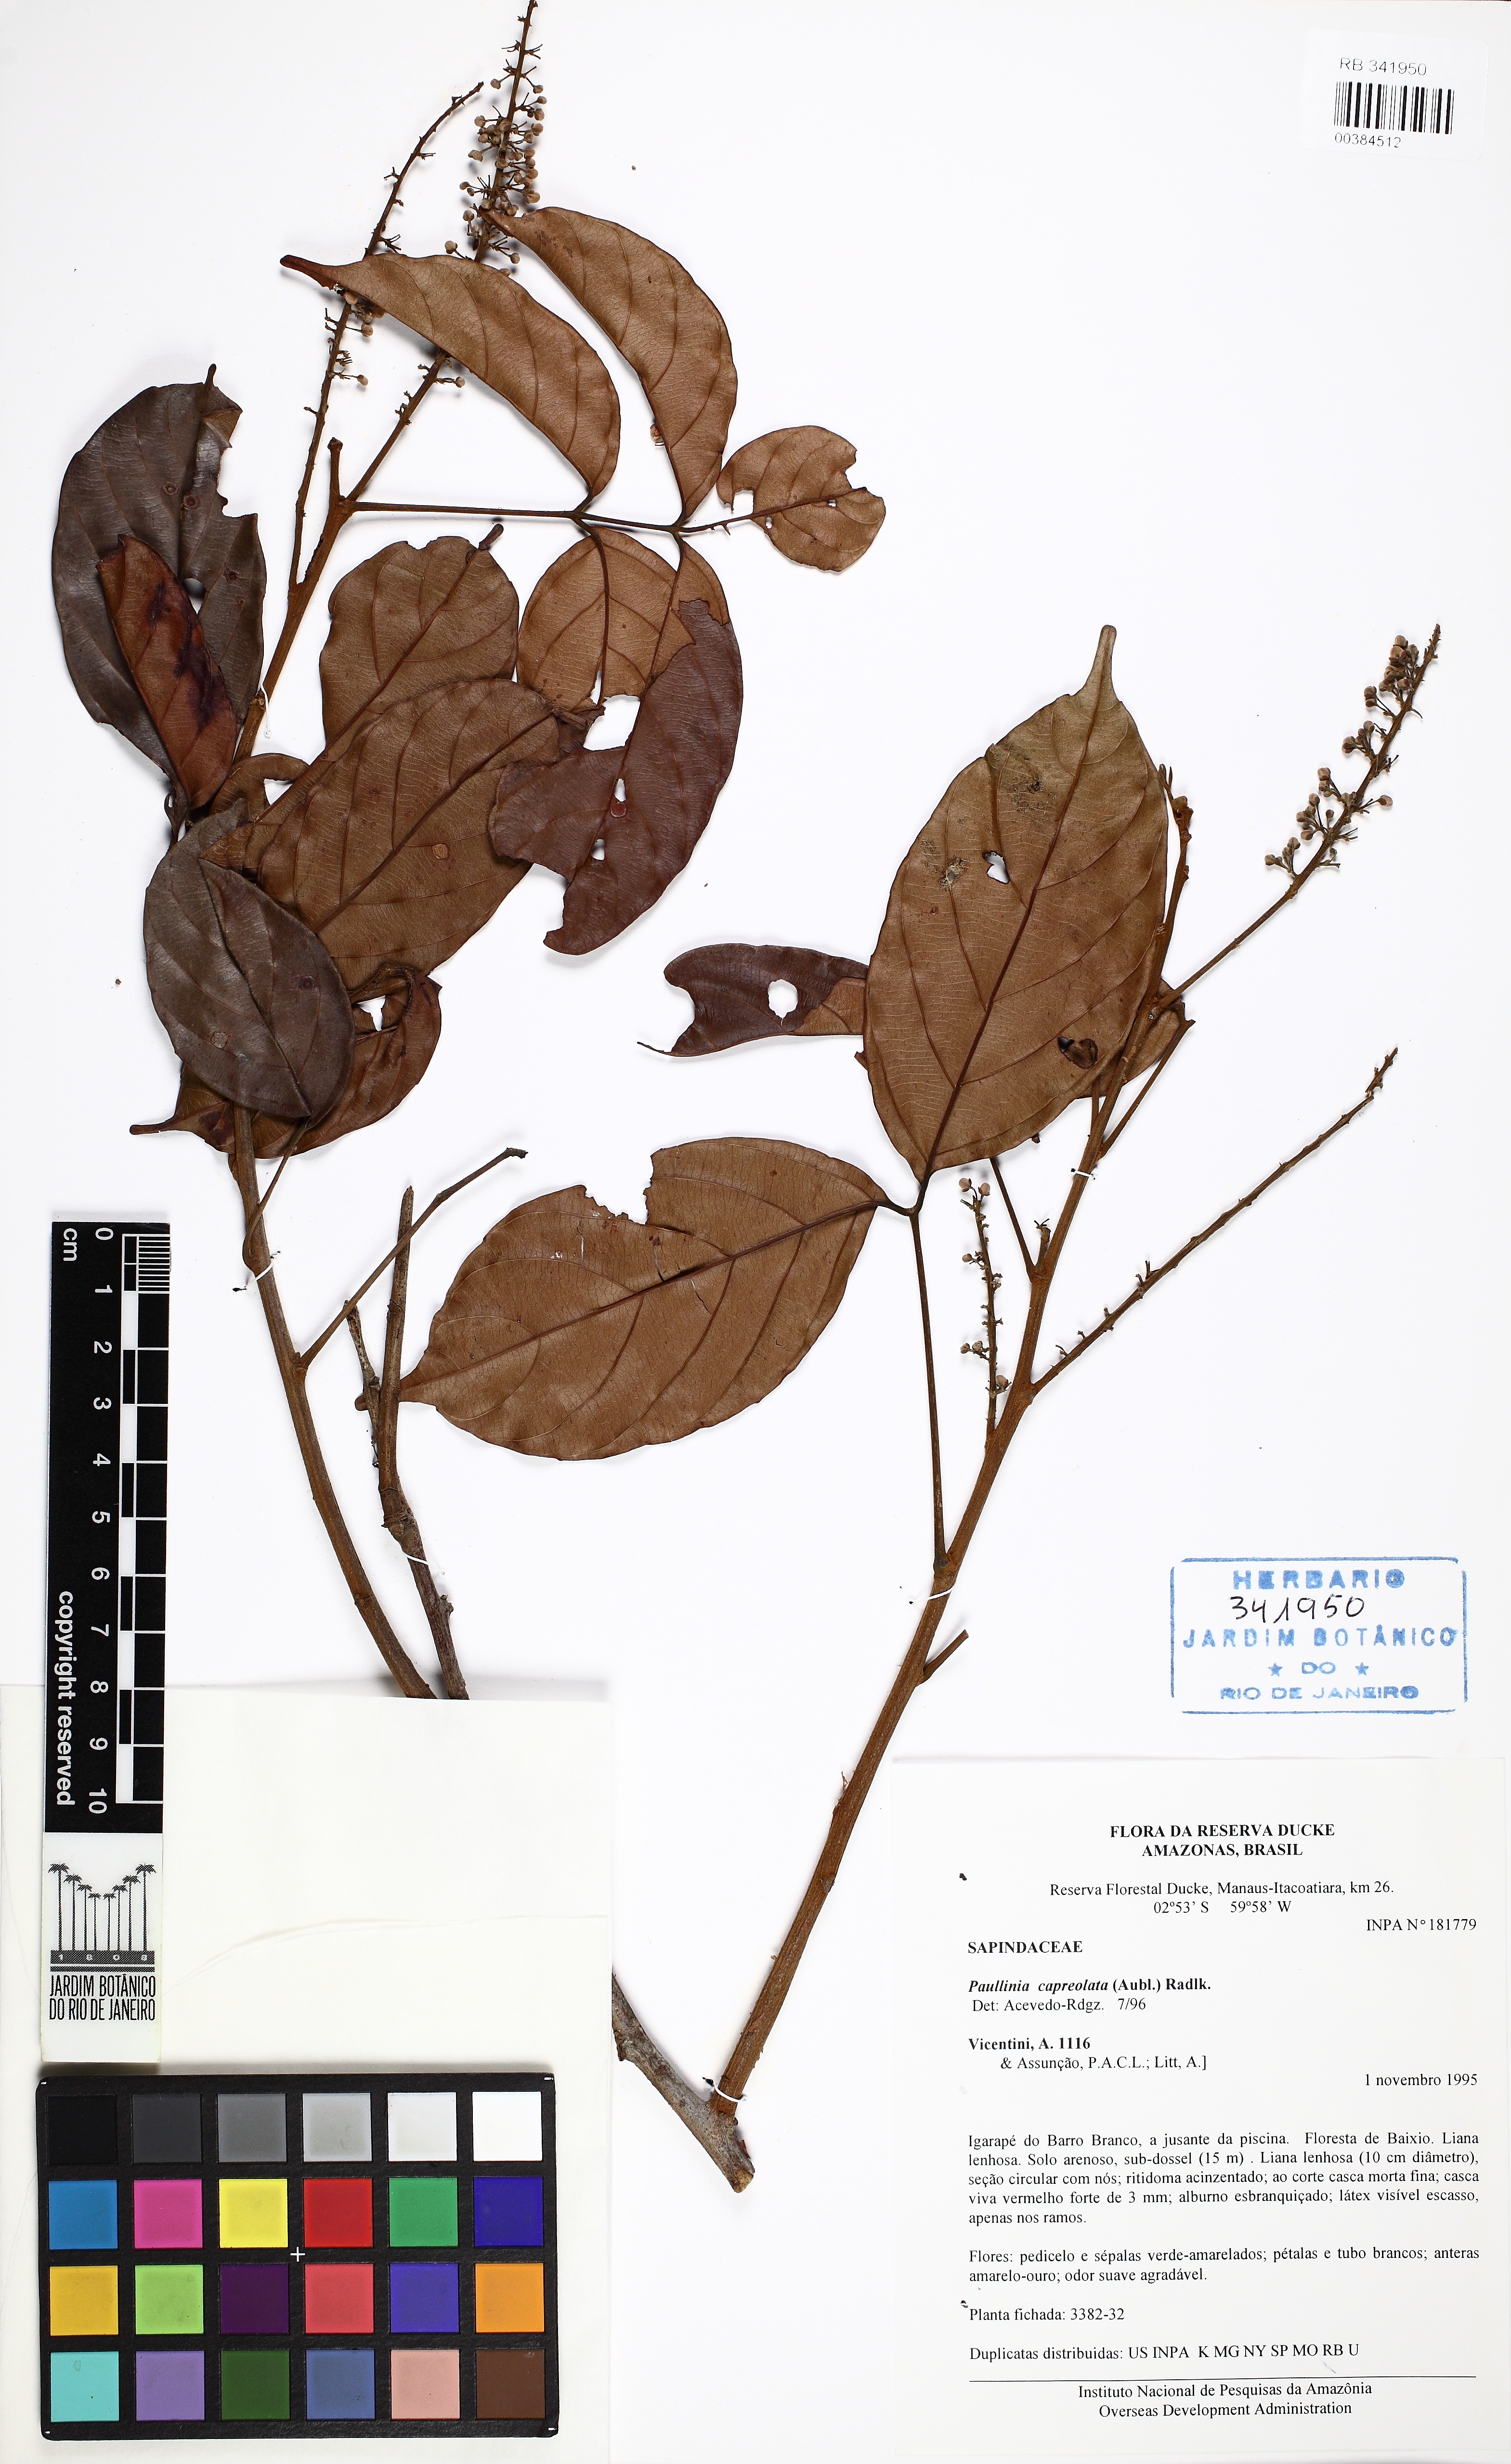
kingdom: Plantae
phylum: Tracheophyta
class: Magnoliopsida
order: Sapindales
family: Sapindaceae
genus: Paullinia
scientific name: Paullinia capreolata
